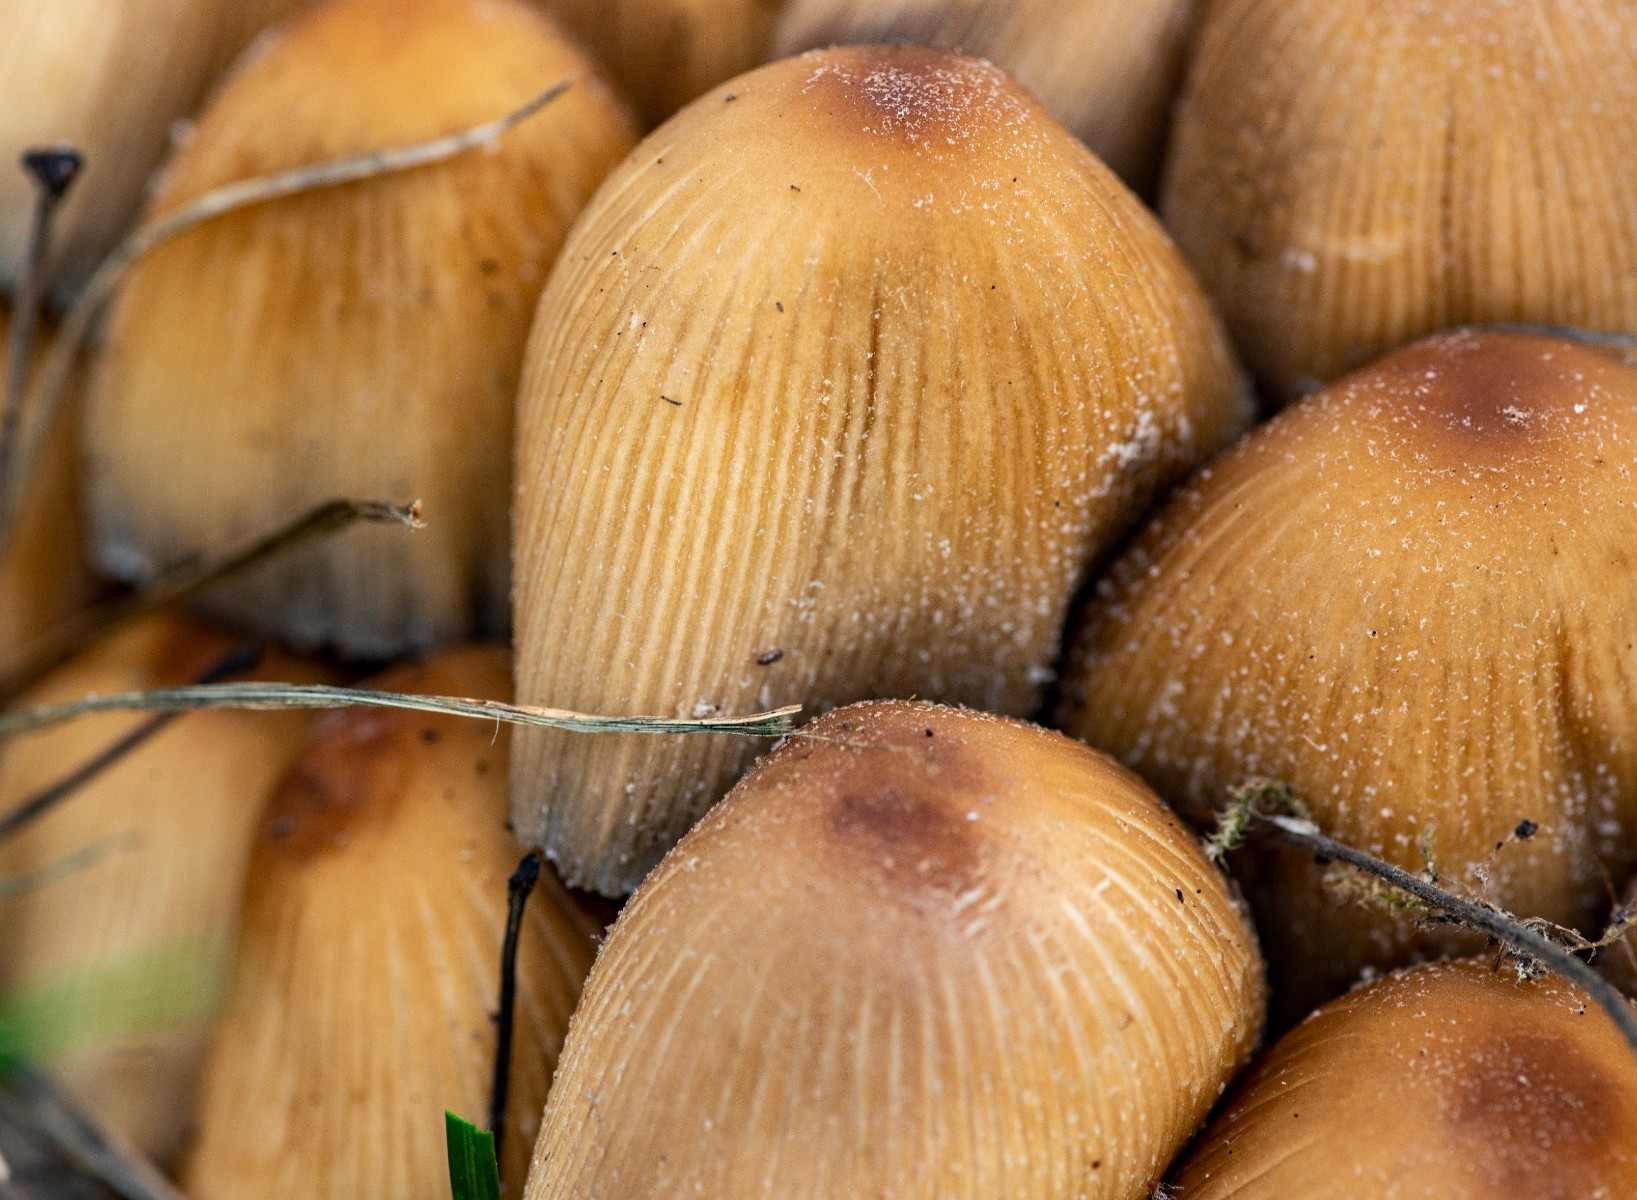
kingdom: Fungi
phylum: Basidiomycota
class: Agaricomycetes
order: Agaricales
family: Psathyrellaceae
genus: Coprinellus
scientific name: Coprinellus micaceus
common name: glimmer-blækhat
